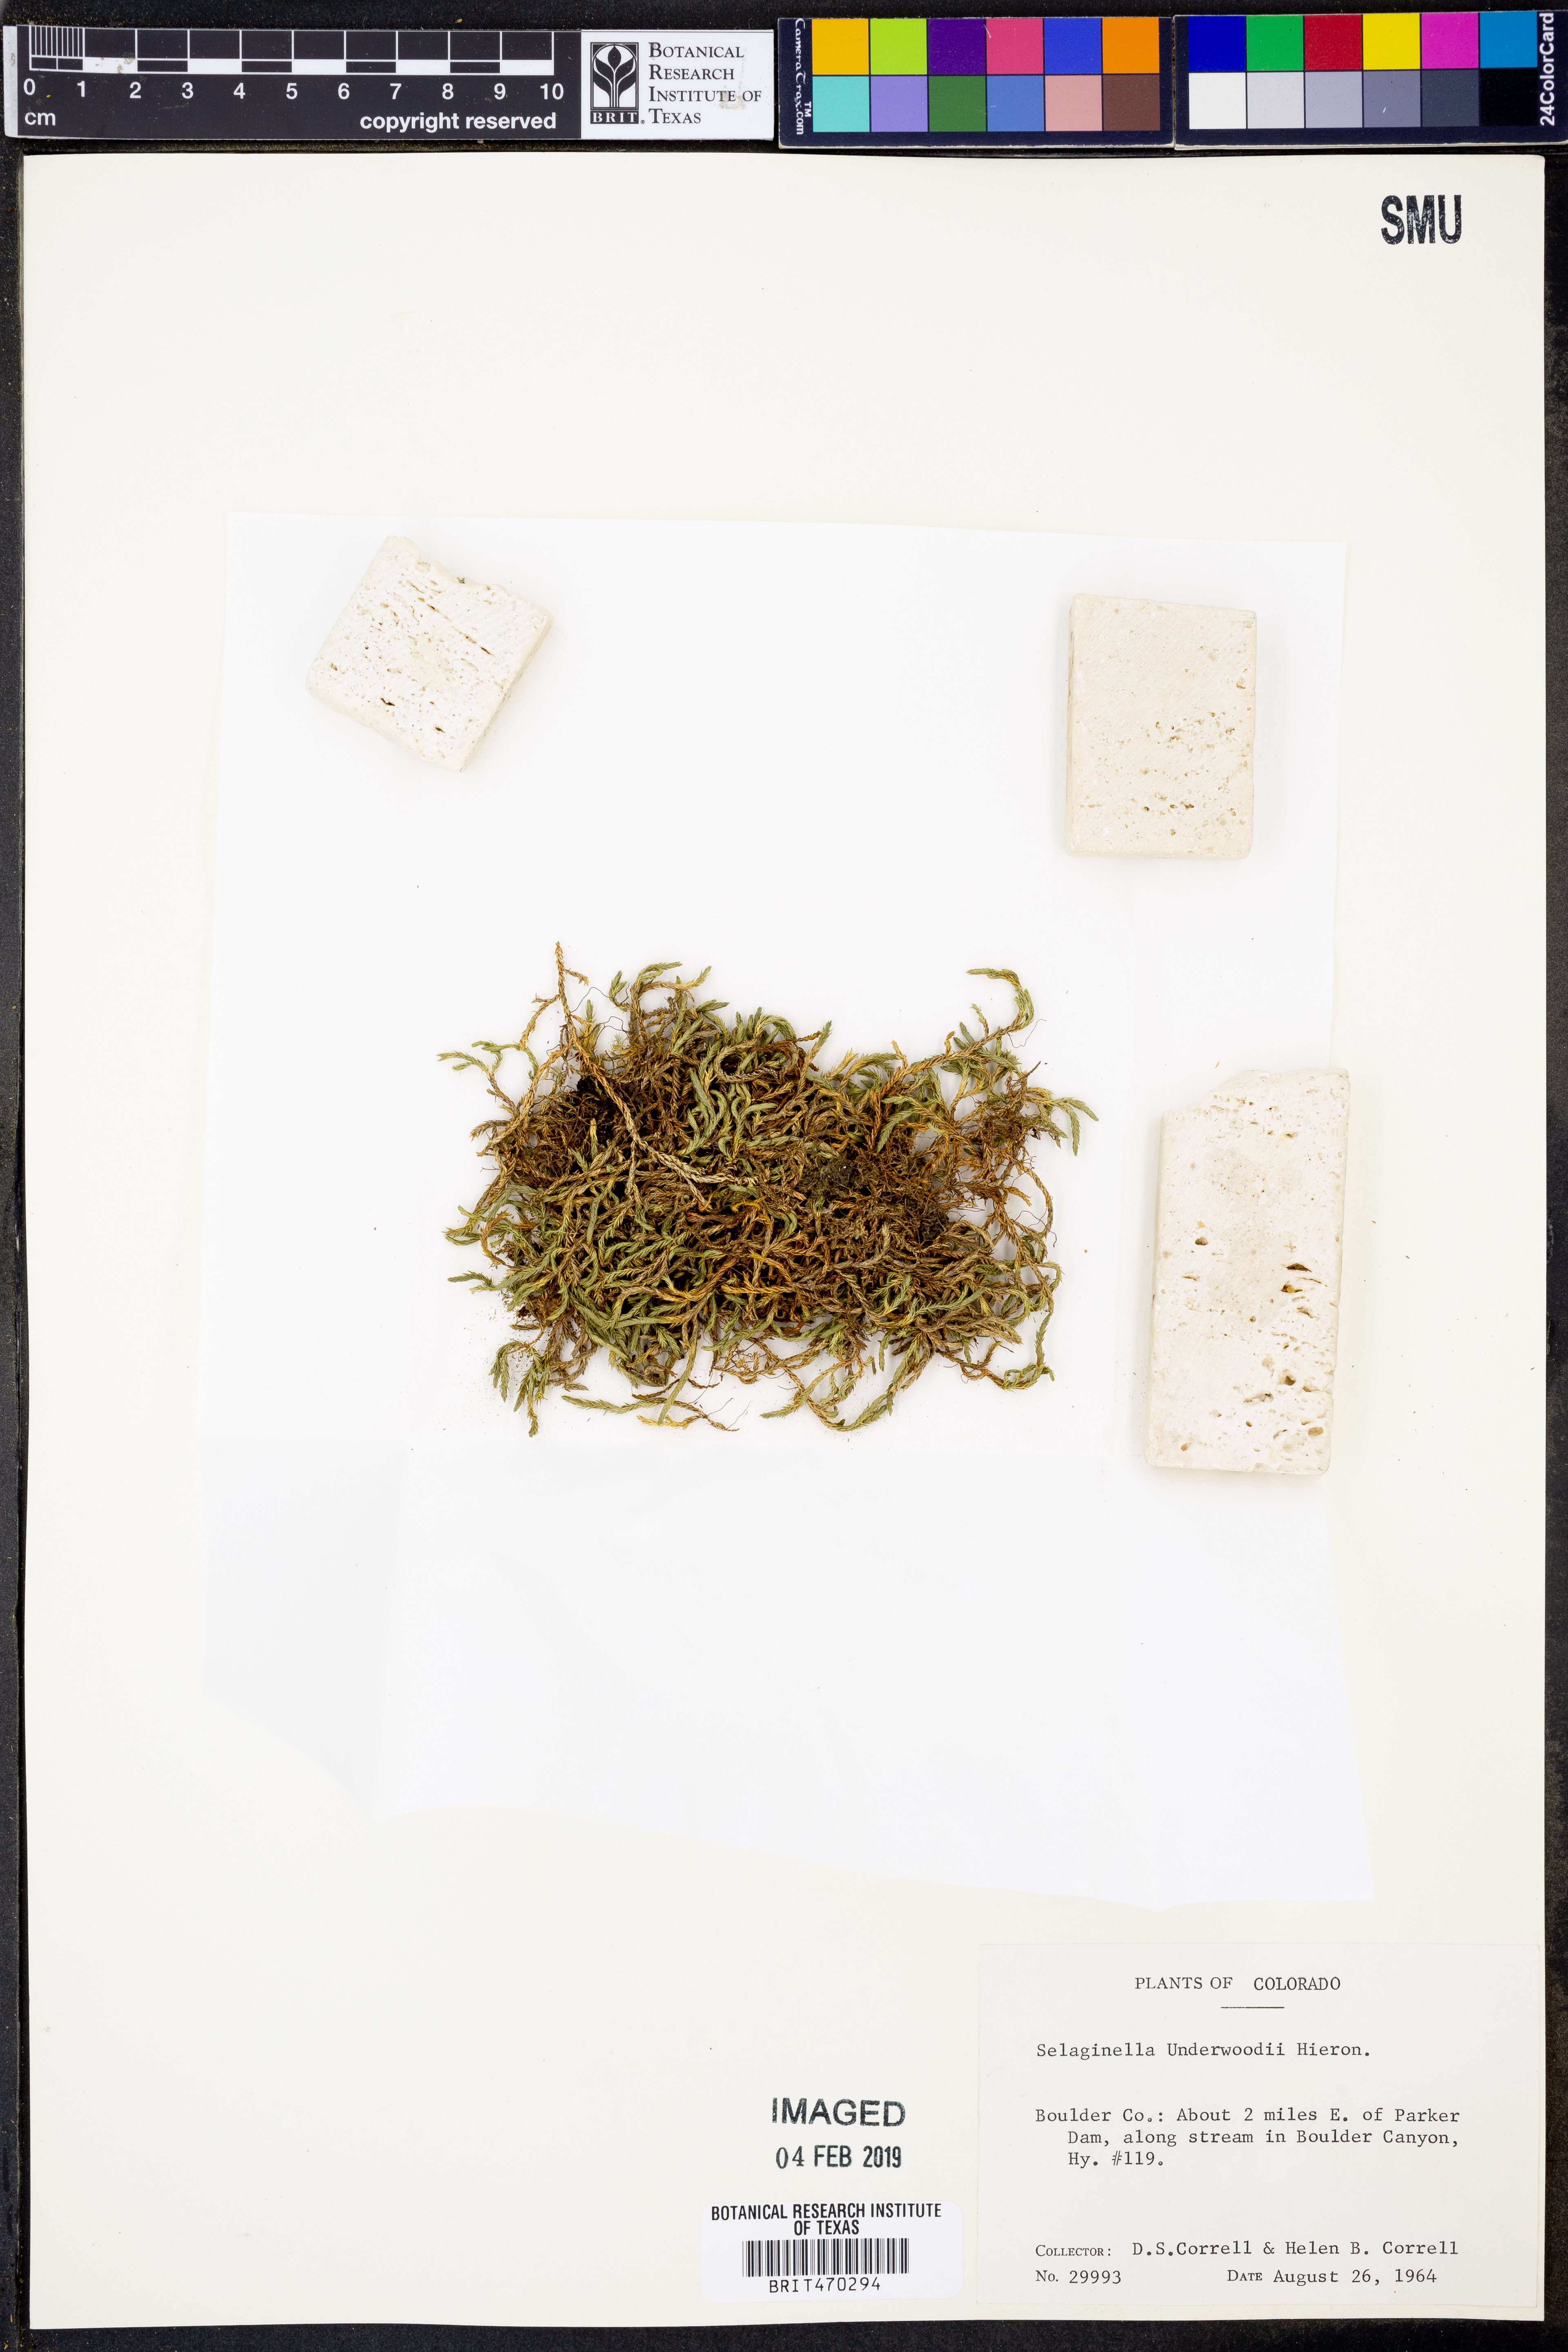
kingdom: Plantae
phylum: Tracheophyta
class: Lycopodiopsida
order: Selaginellales
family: Selaginellaceae
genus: Selaginella
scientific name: Selaginella underwoodii
